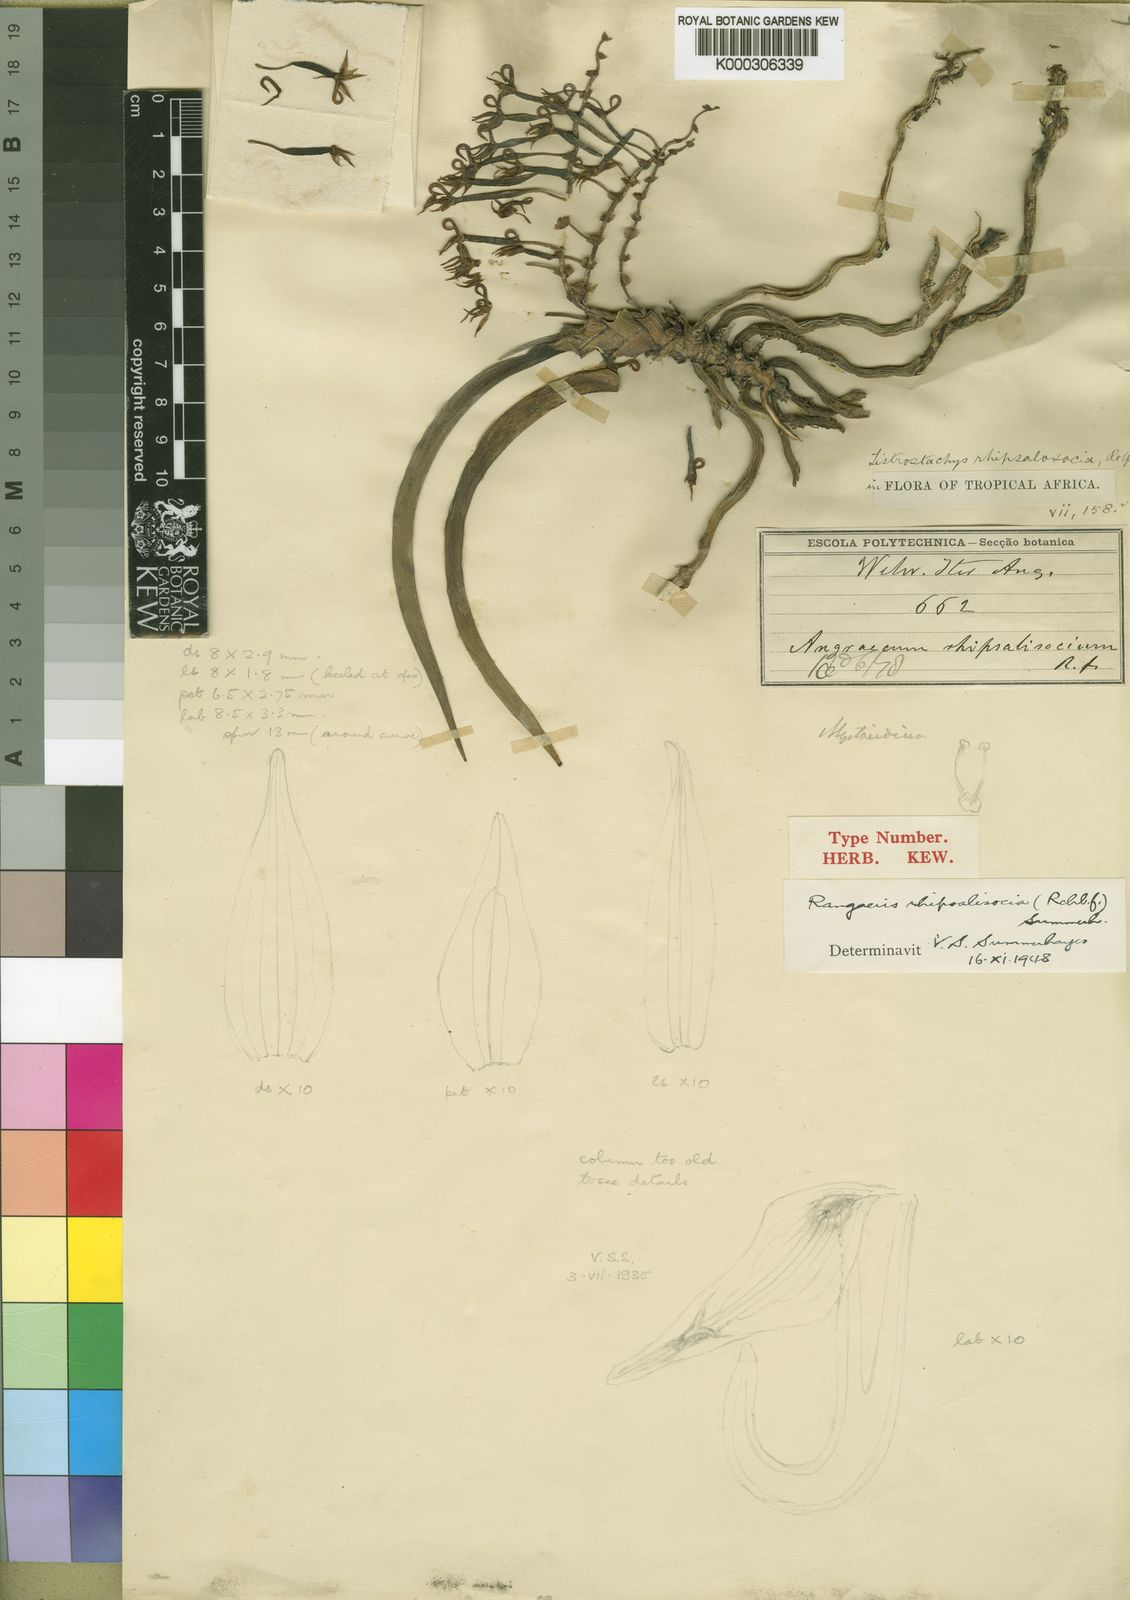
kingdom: Plantae
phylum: Tracheophyta
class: Liliopsida
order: Asparagales
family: Orchidaceae
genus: Podangis
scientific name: Podangis rhipsalisocia
